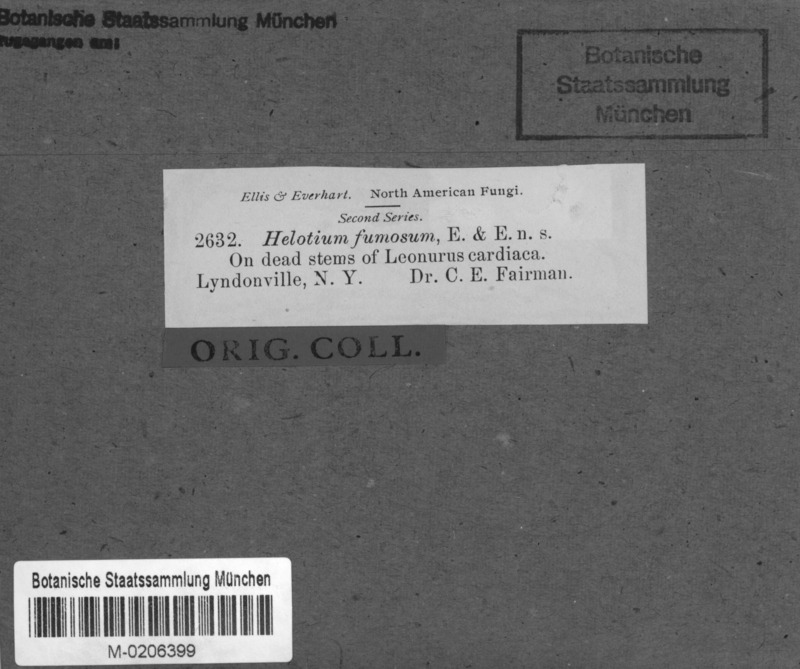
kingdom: Plantae
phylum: Tracheophyta
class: Magnoliopsida
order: Lamiales
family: Lamiaceae
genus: Leonurus
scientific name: Leonurus cardiaca
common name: Motherwort
